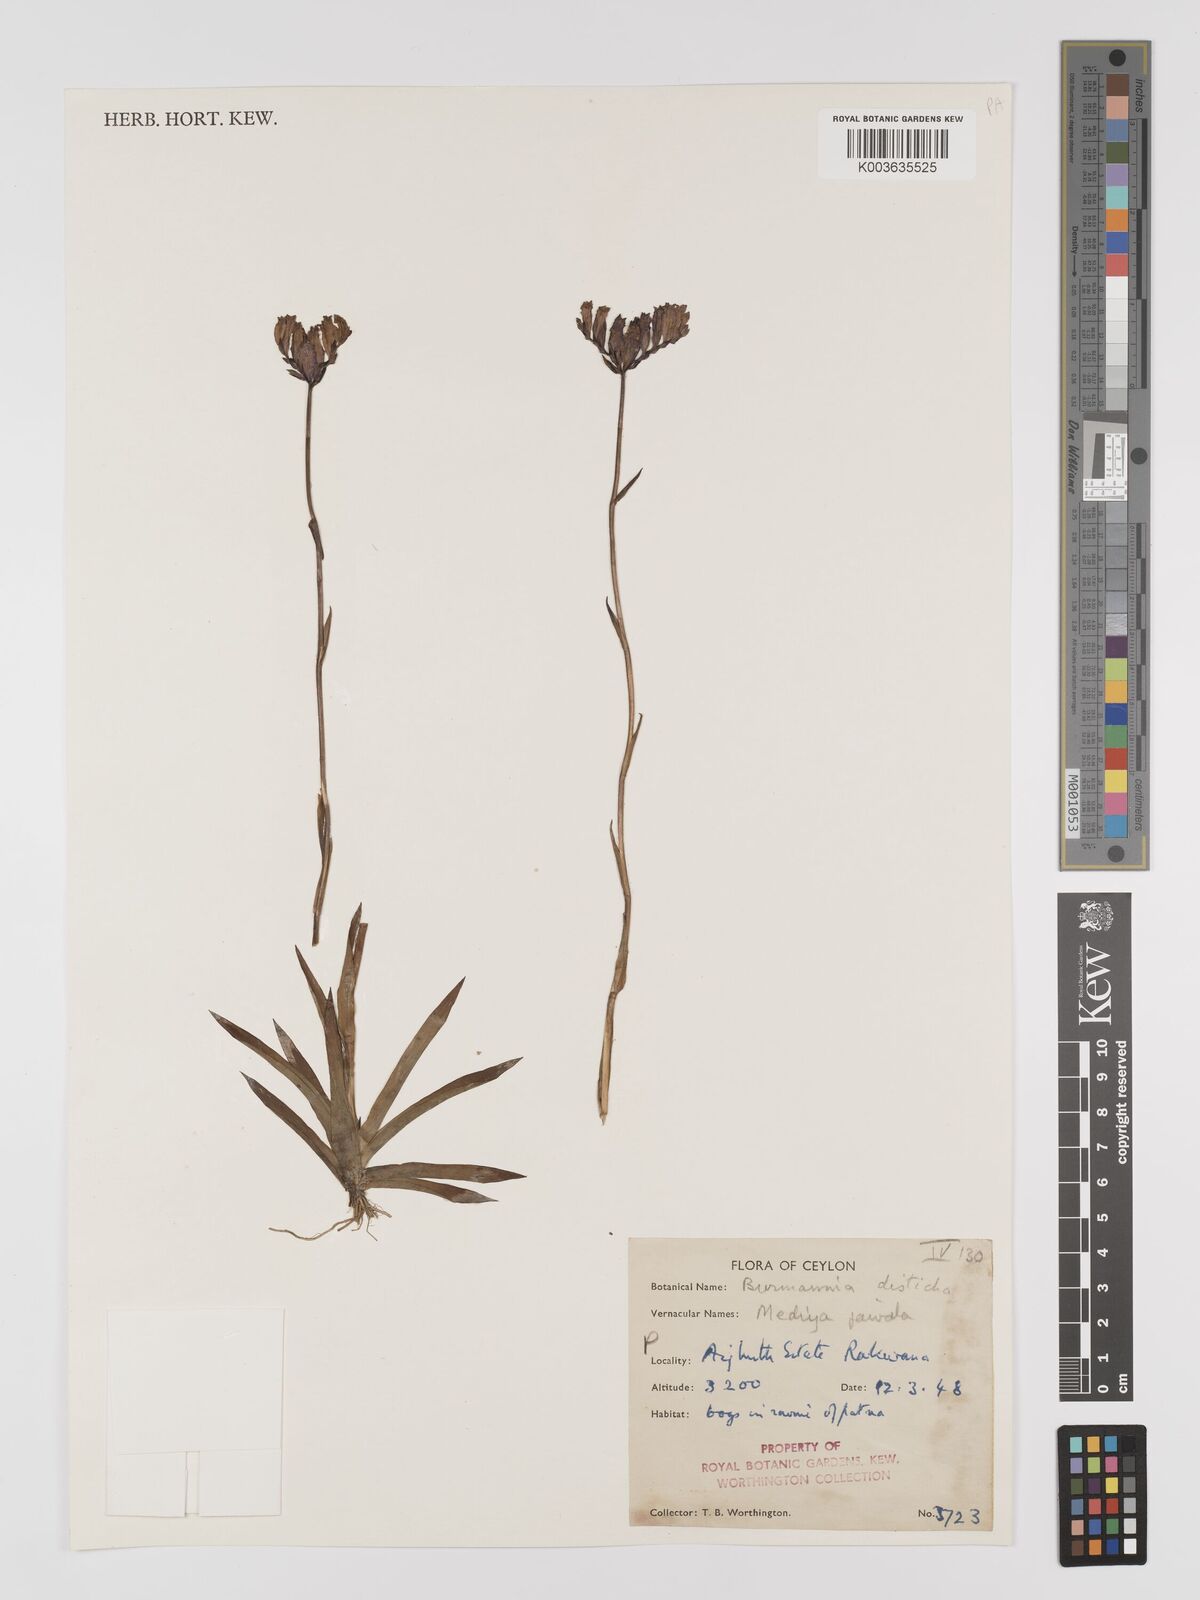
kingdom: Plantae
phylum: Tracheophyta
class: Liliopsida
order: Dioscoreales
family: Burmanniaceae
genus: Burmannia
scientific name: Burmannia disticha
